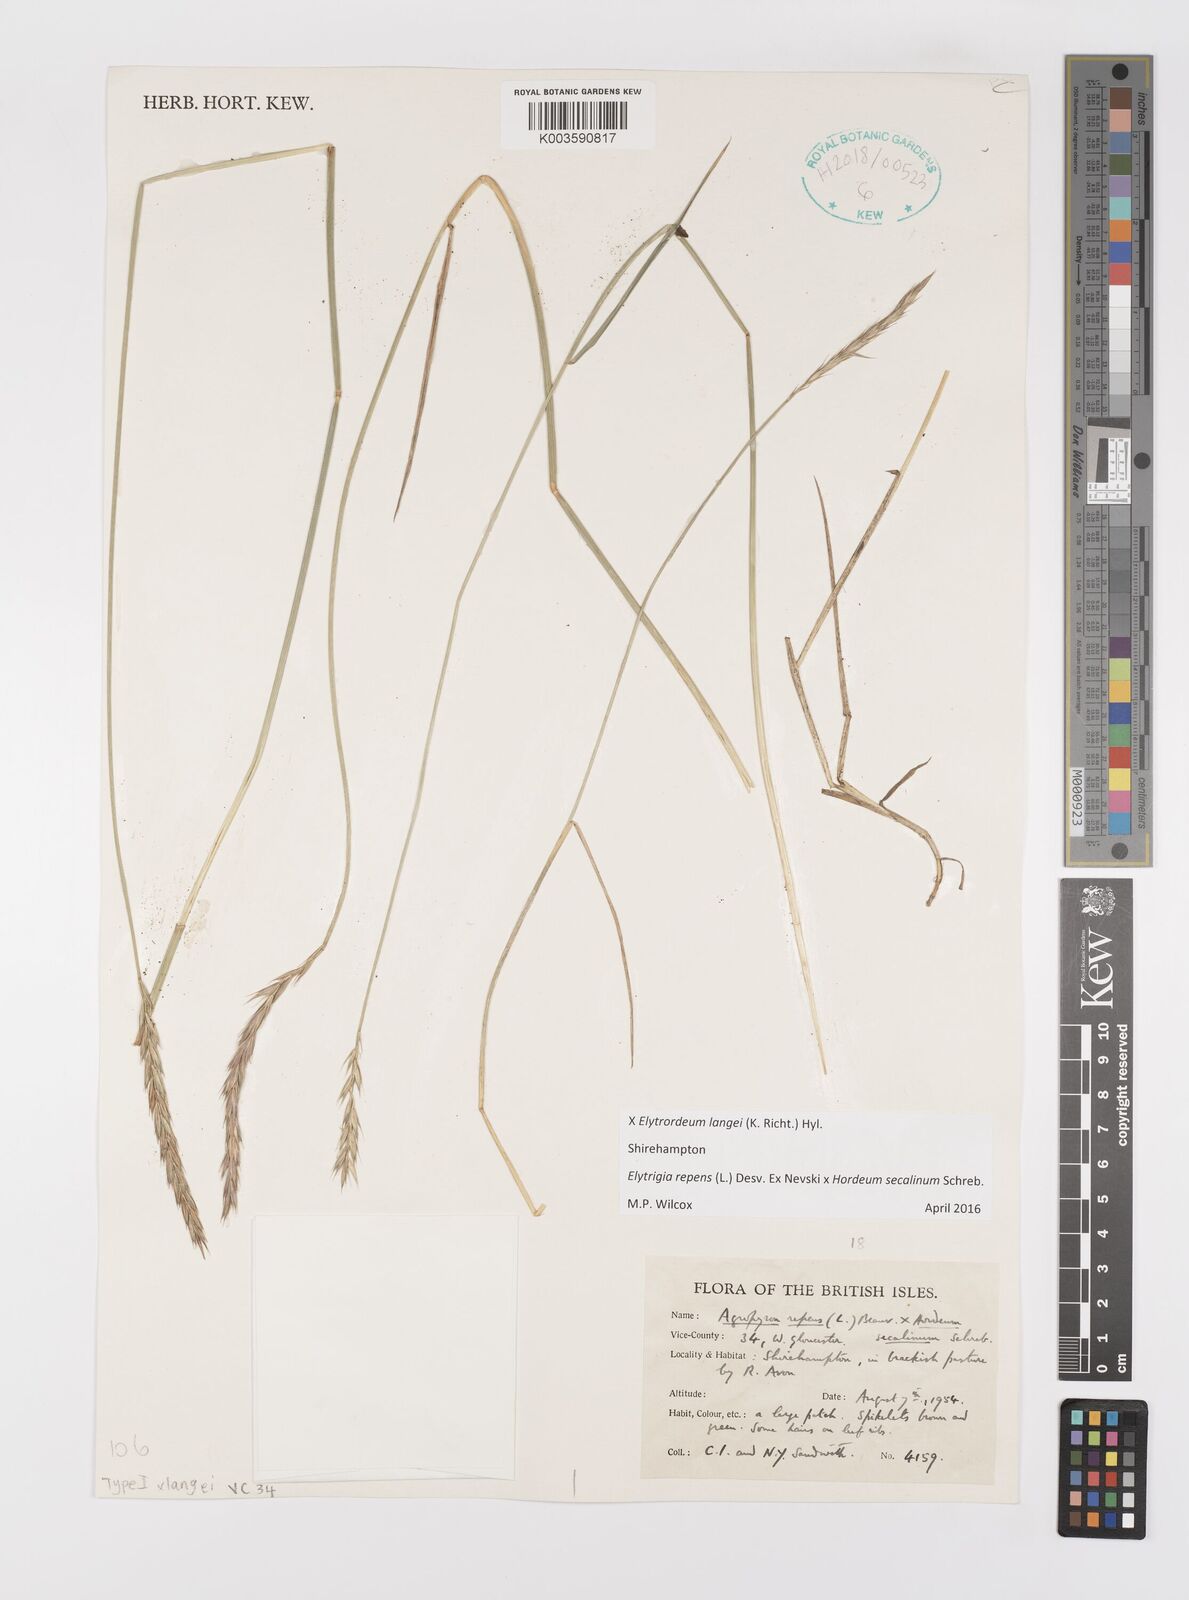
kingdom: Plantae
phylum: Tracheophyta
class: Liliopsida
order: Poales
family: Poaceae
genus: Elyhordeum
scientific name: Elyhordeum langei
